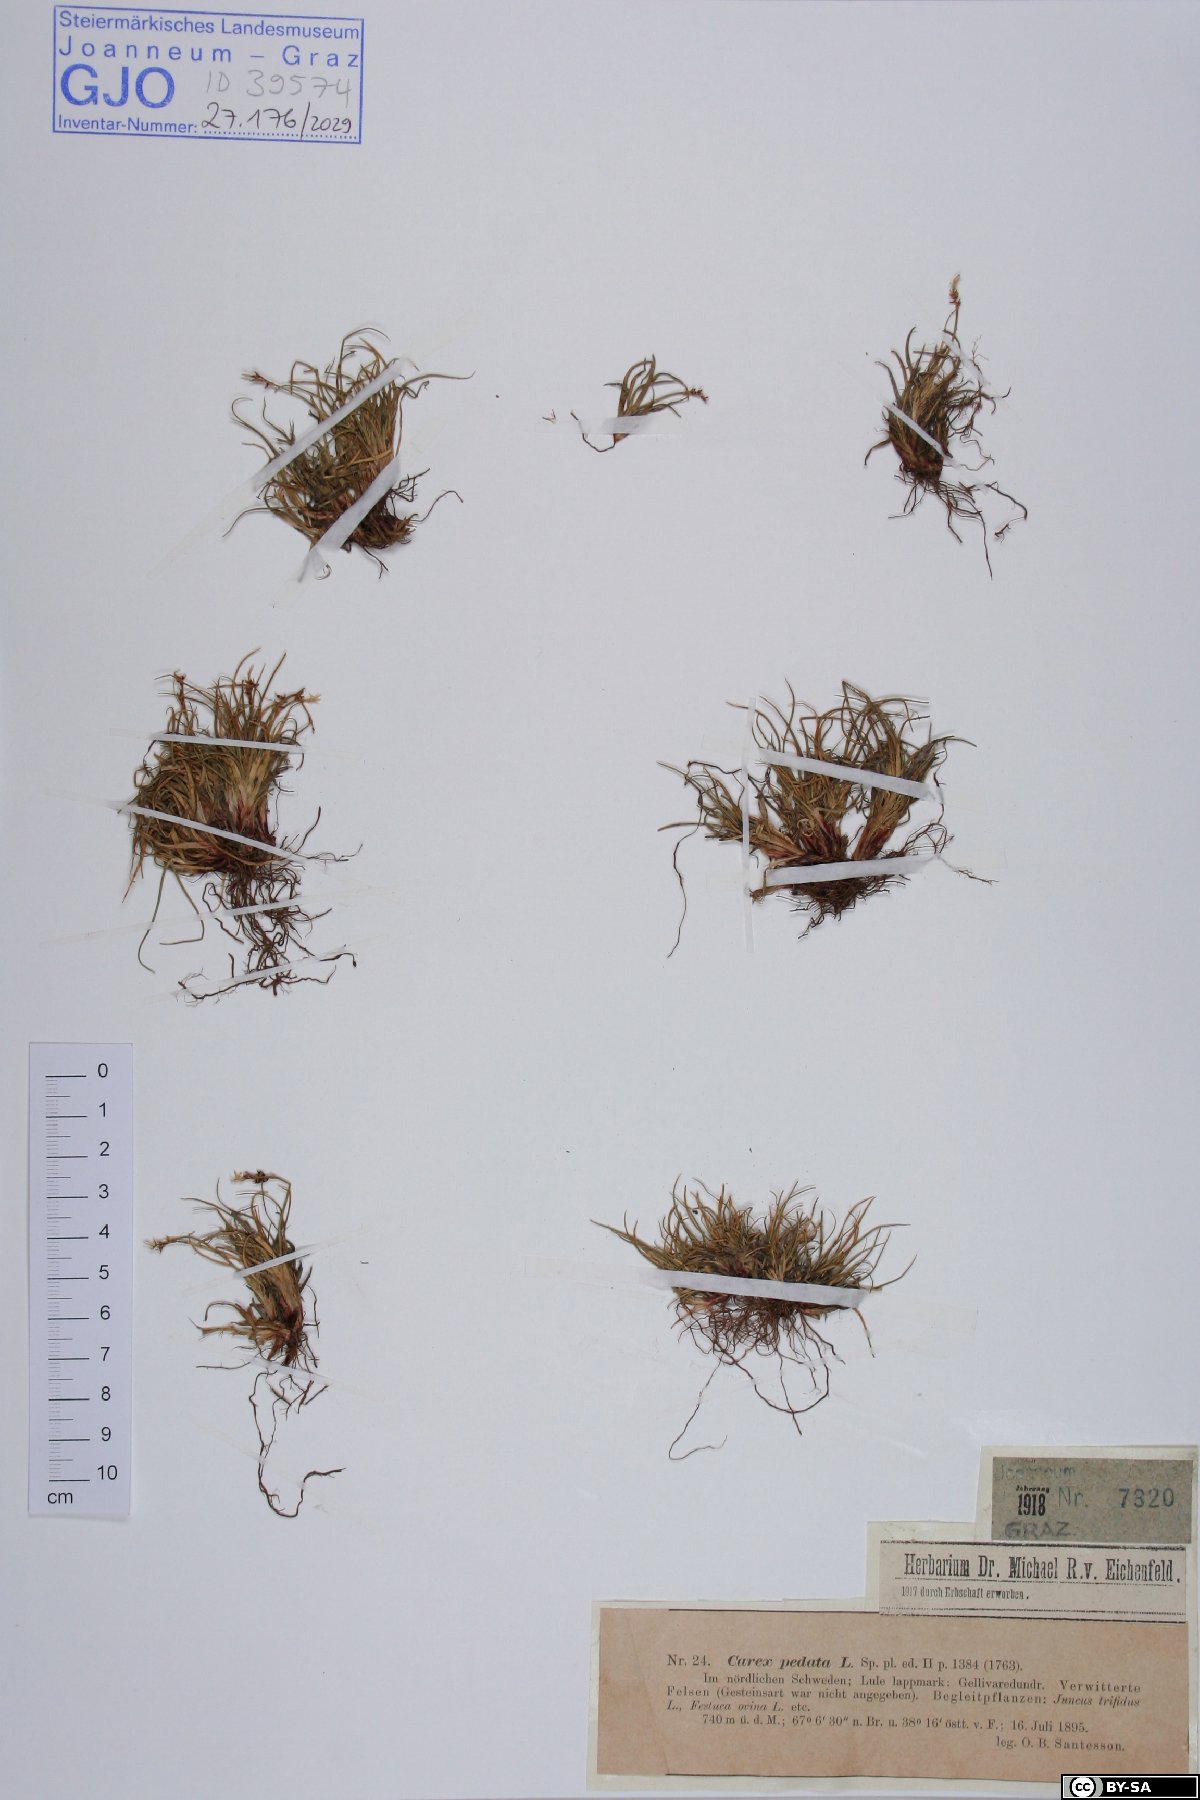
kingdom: Plantae
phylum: Tracheophyta
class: Liliopsida
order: Poales
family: Cyperaceae
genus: Carex
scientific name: Carex ornithopoda
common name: Bird's-foot sedge
